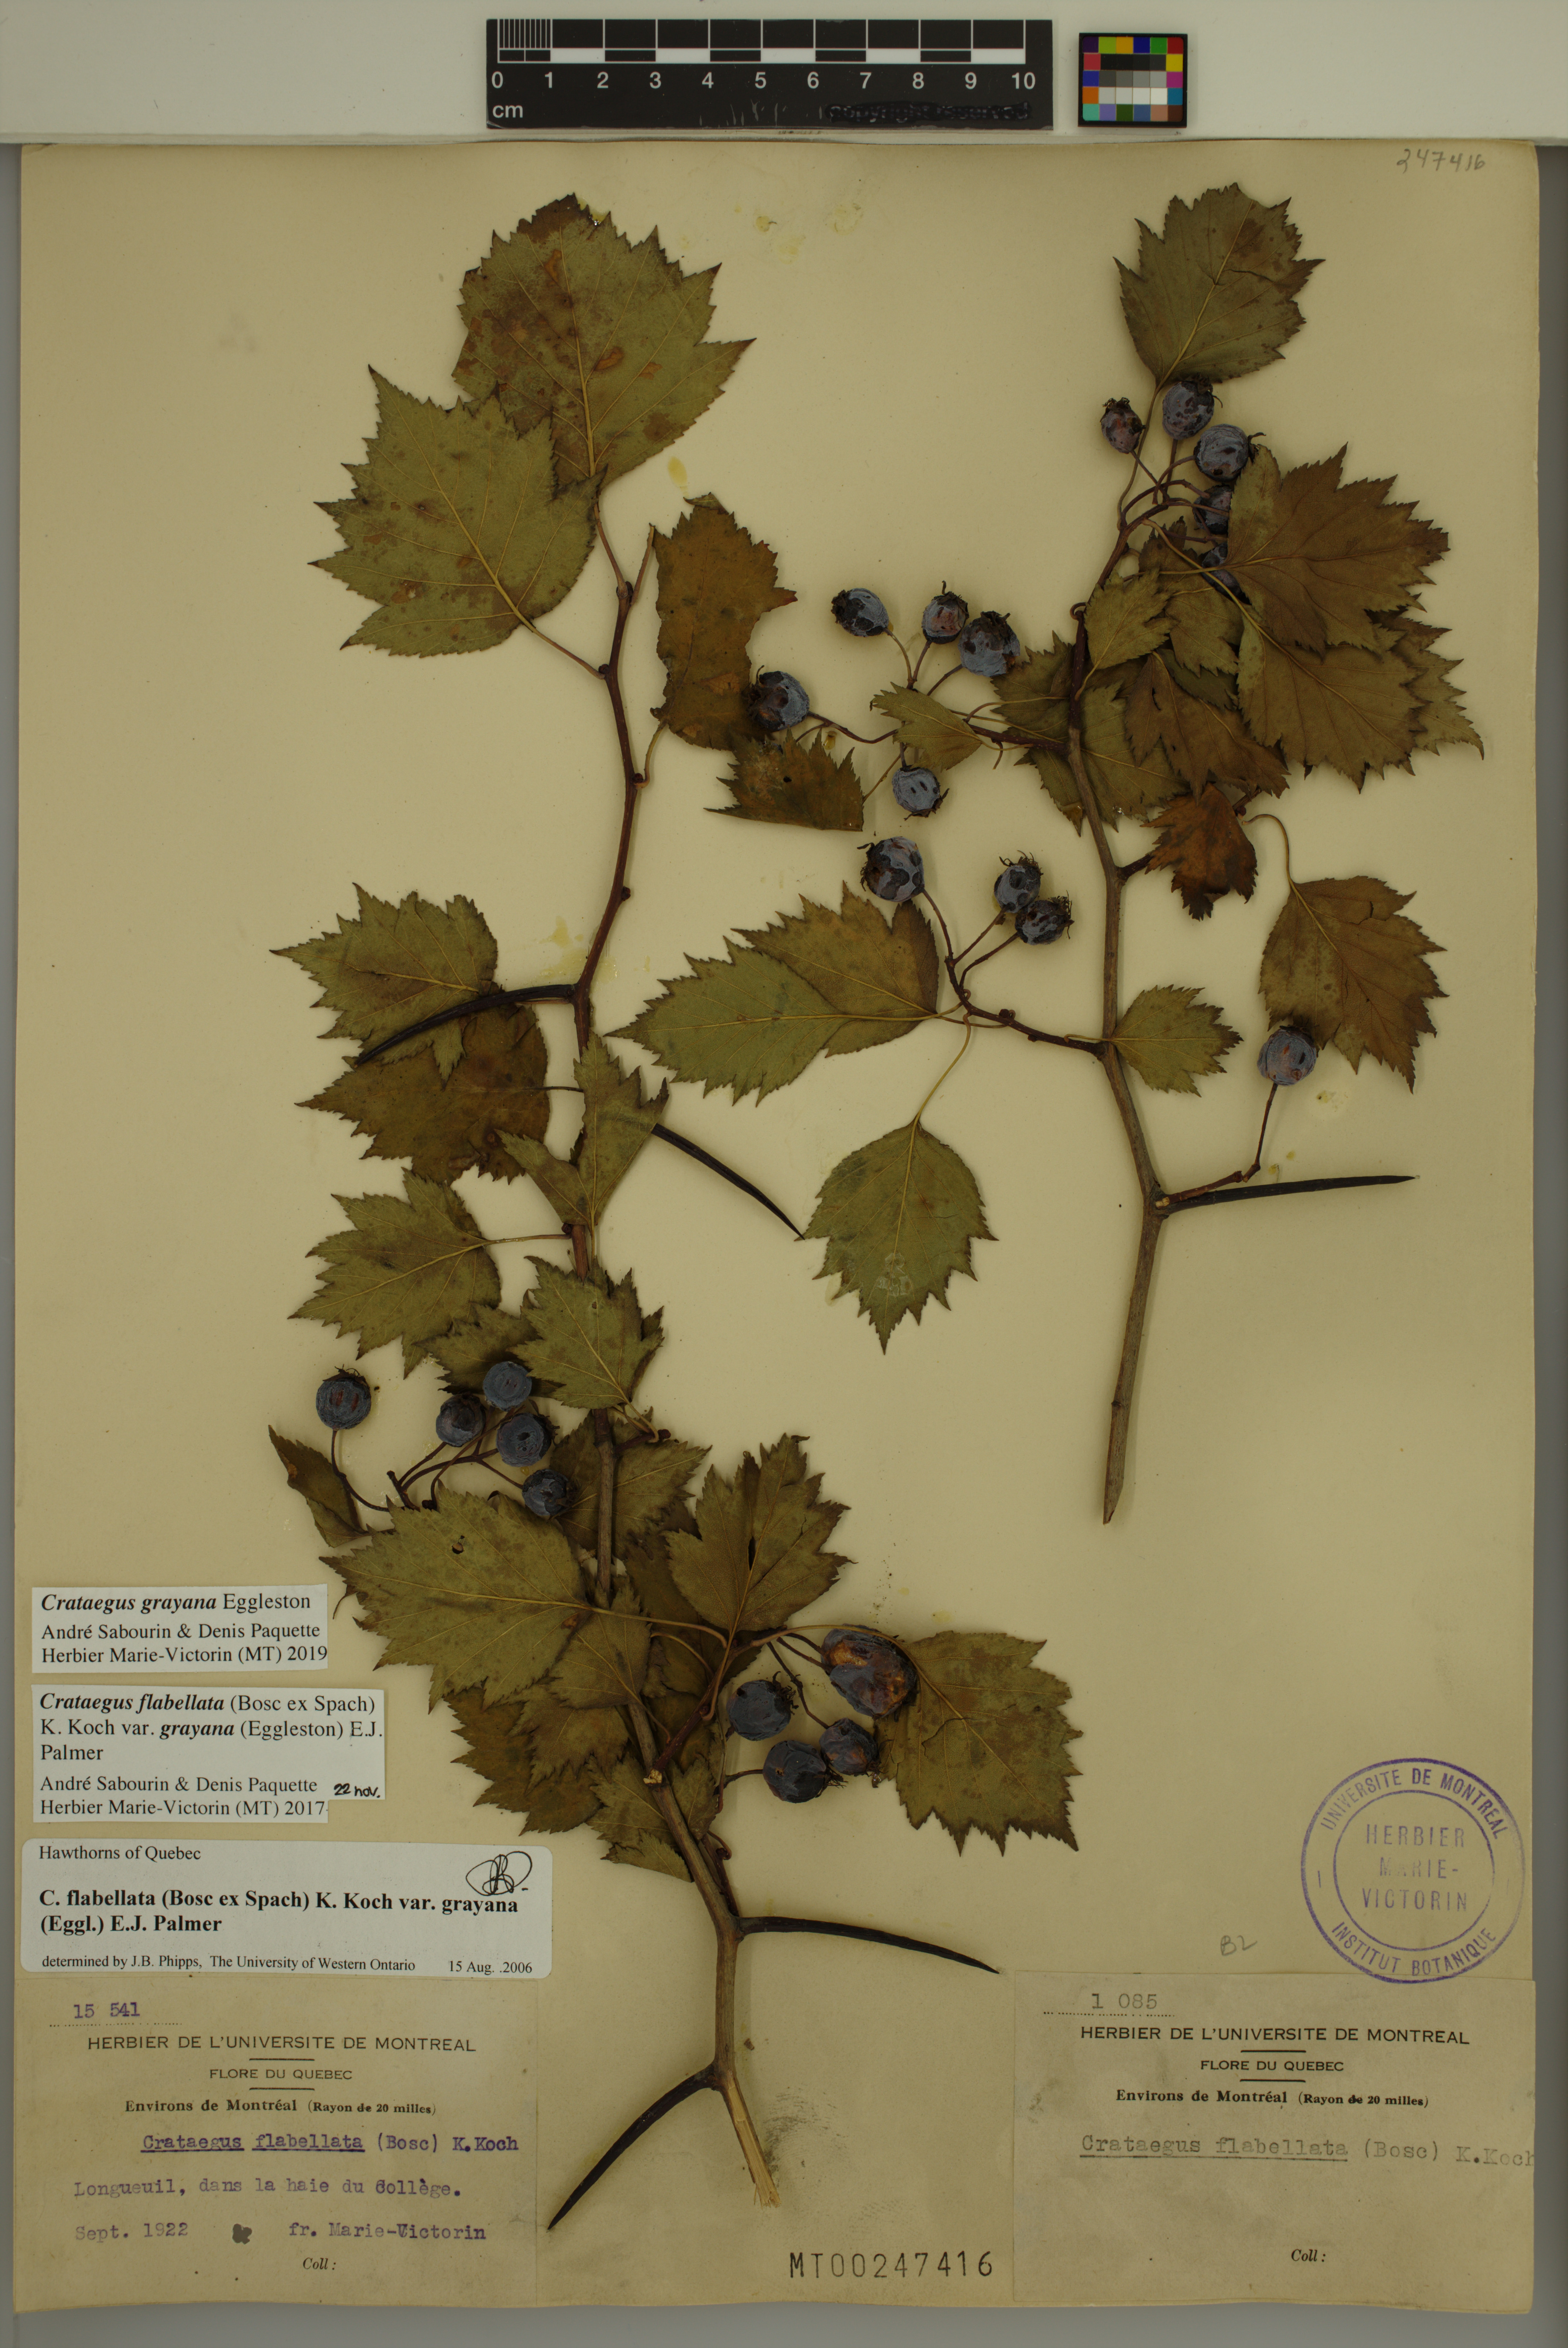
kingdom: Plantae
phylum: Tracheophyta
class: Magnoliopsida
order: Rosales
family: Rosaceae
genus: Crataegus
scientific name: Crataegus schuettei
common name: Schuette's hawthorn
